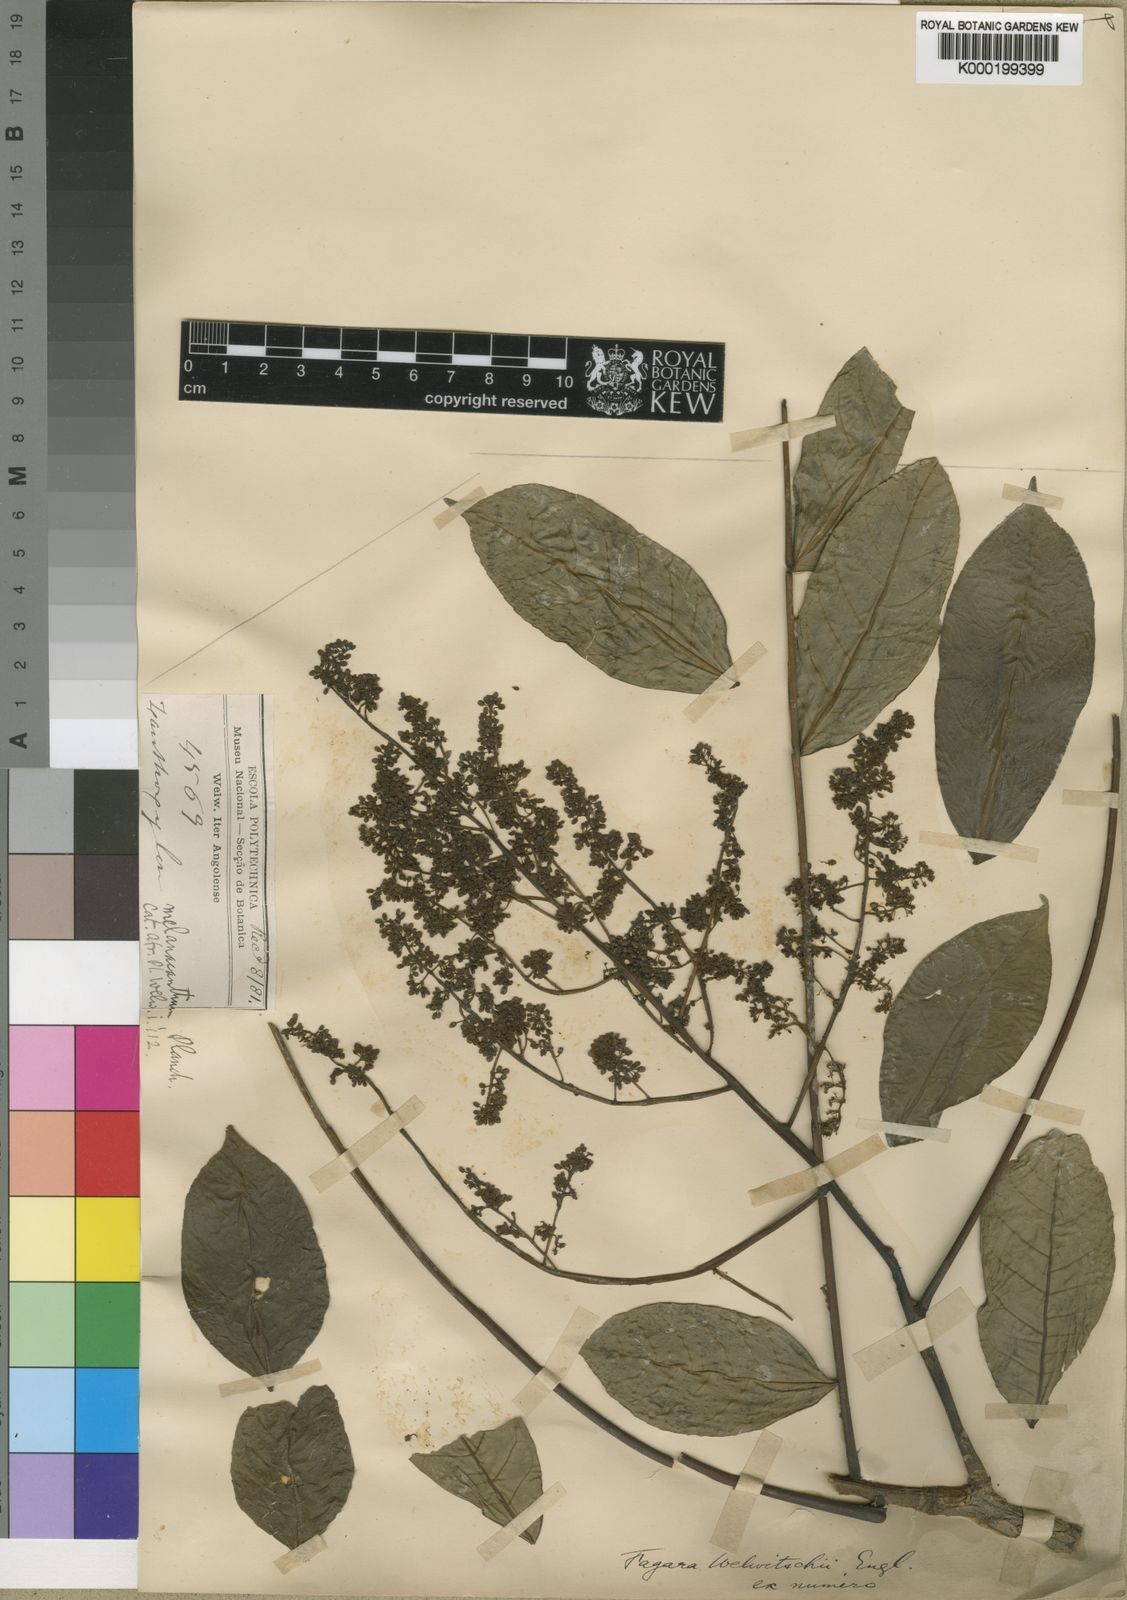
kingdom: Plantae
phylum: Tracheophyta
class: Magnoliopsida
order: Sapindales
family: Rutaceae
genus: Vepris
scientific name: Vepris grandifolia
